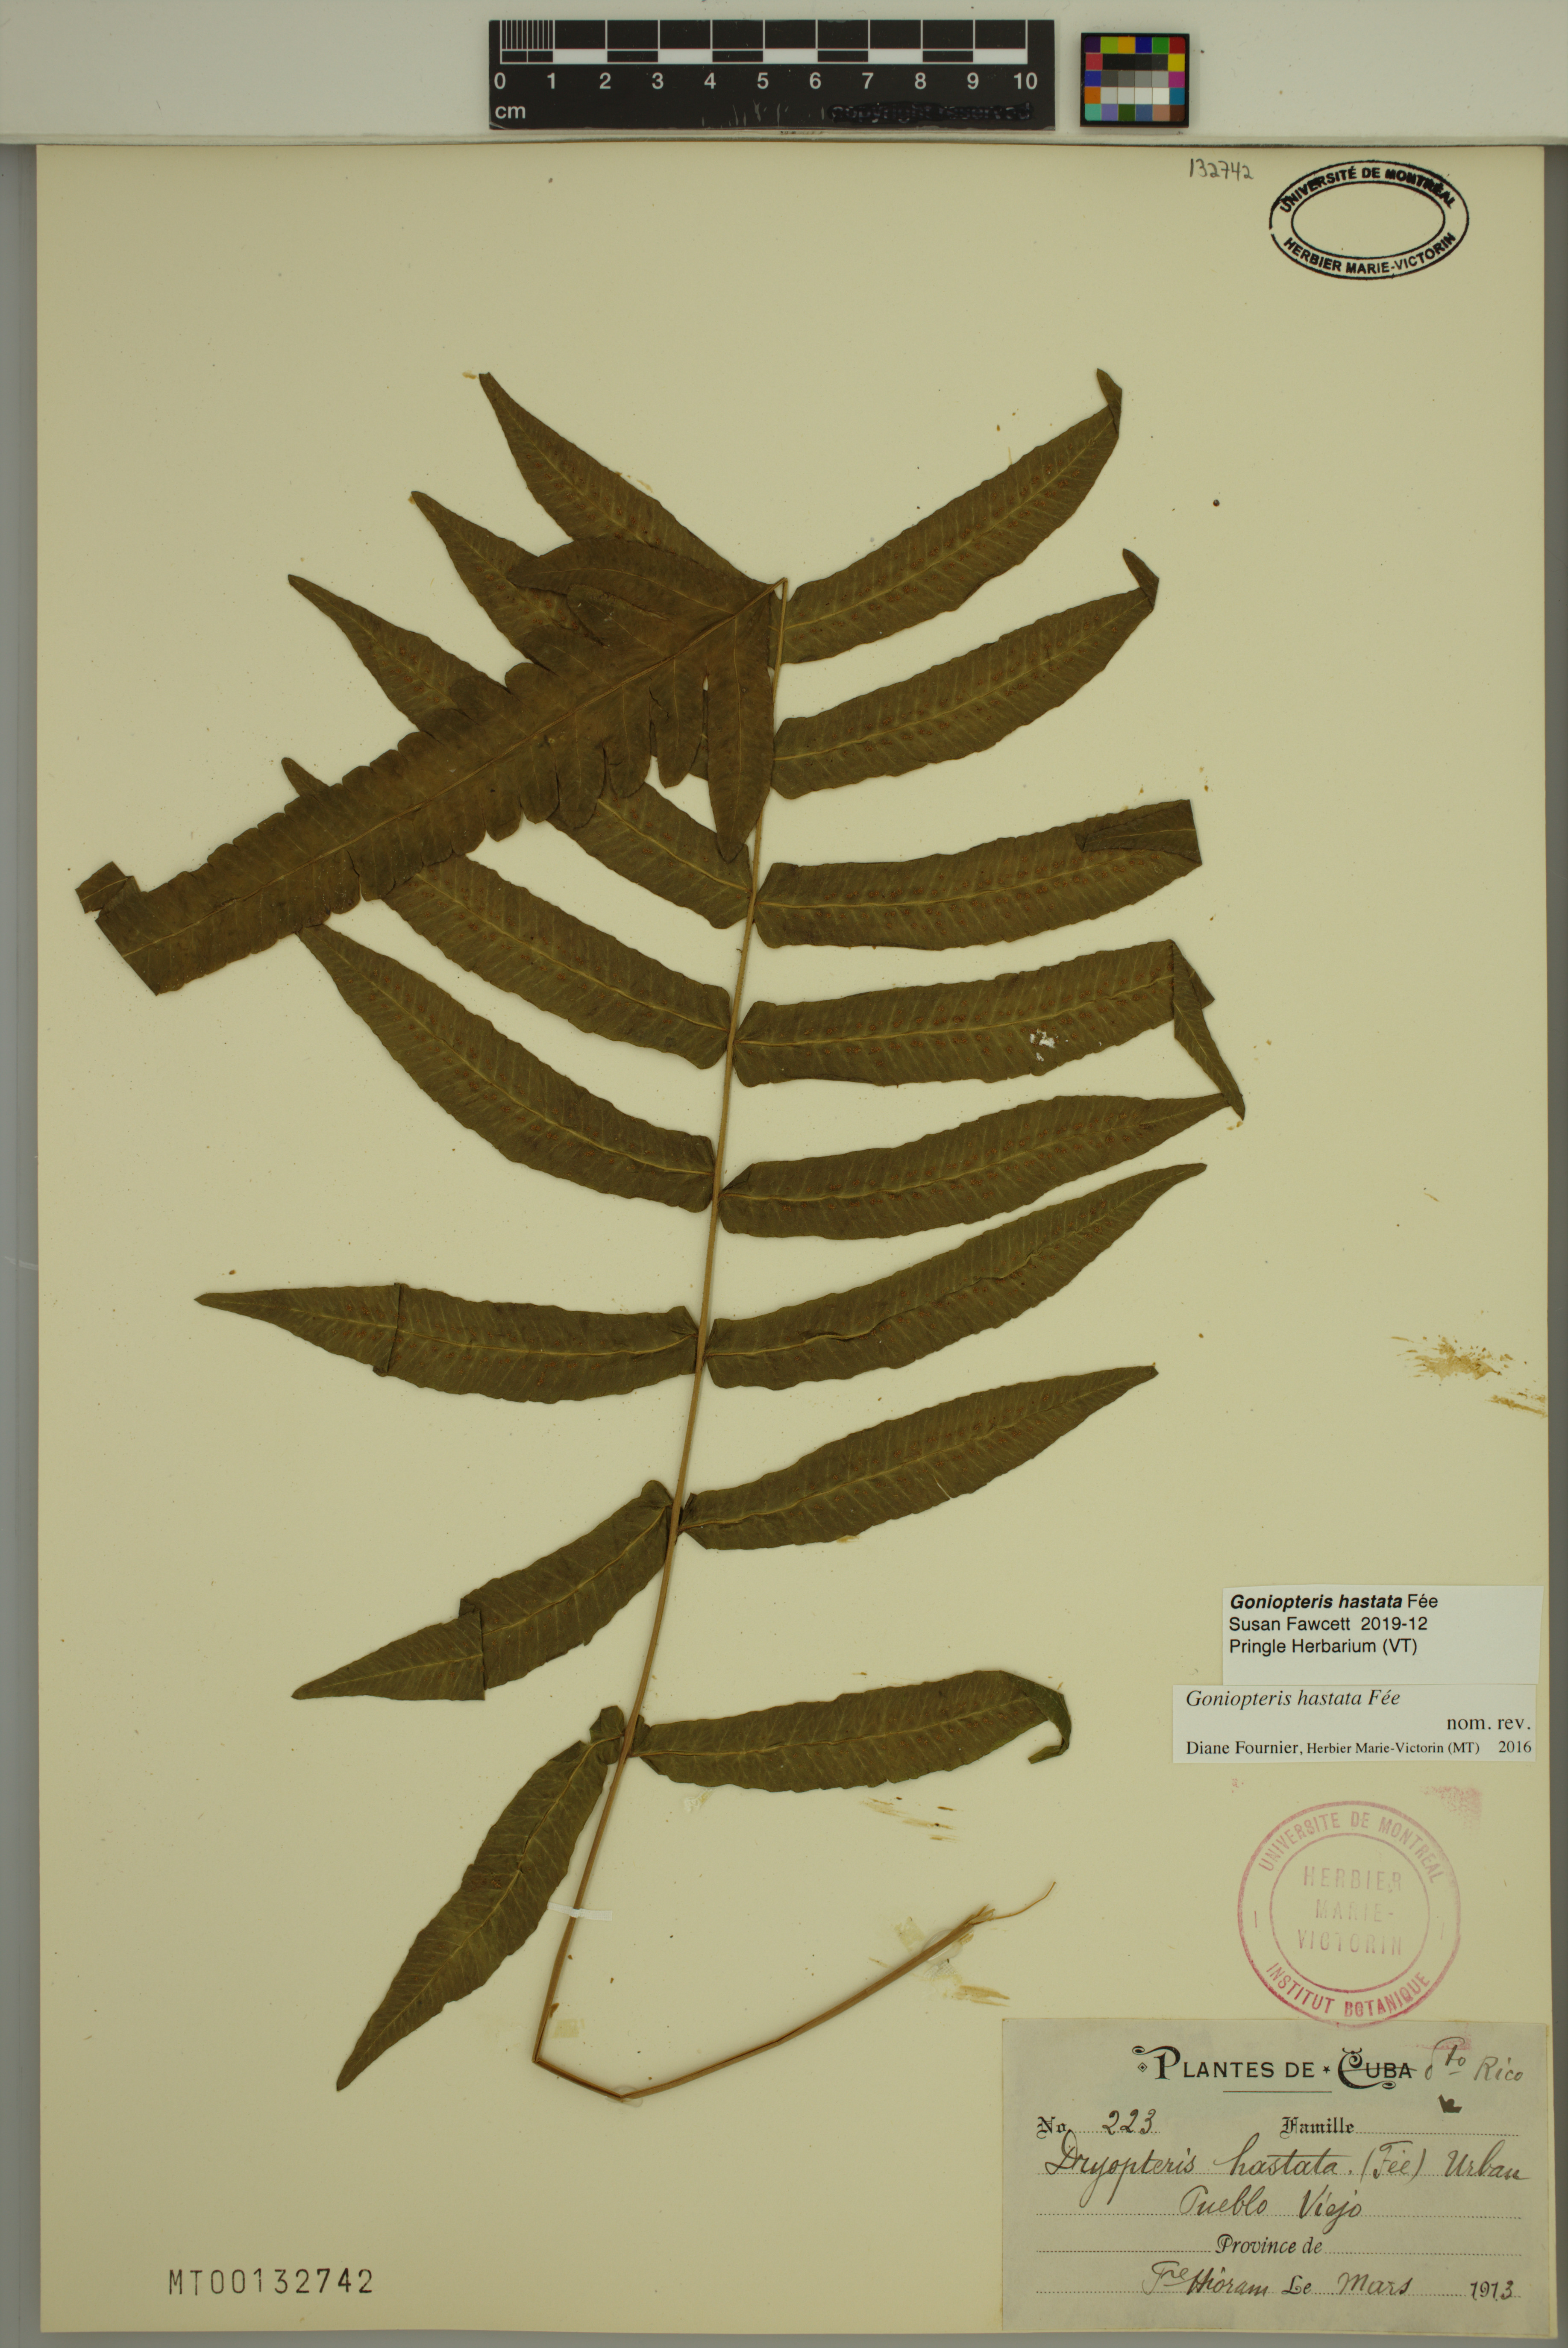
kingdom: Plantae
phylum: Tracheophyta
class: Polypodiopsida
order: Polypodiales
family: Thelypteridaceae
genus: Goniopteris
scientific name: Goniopteris hastata
